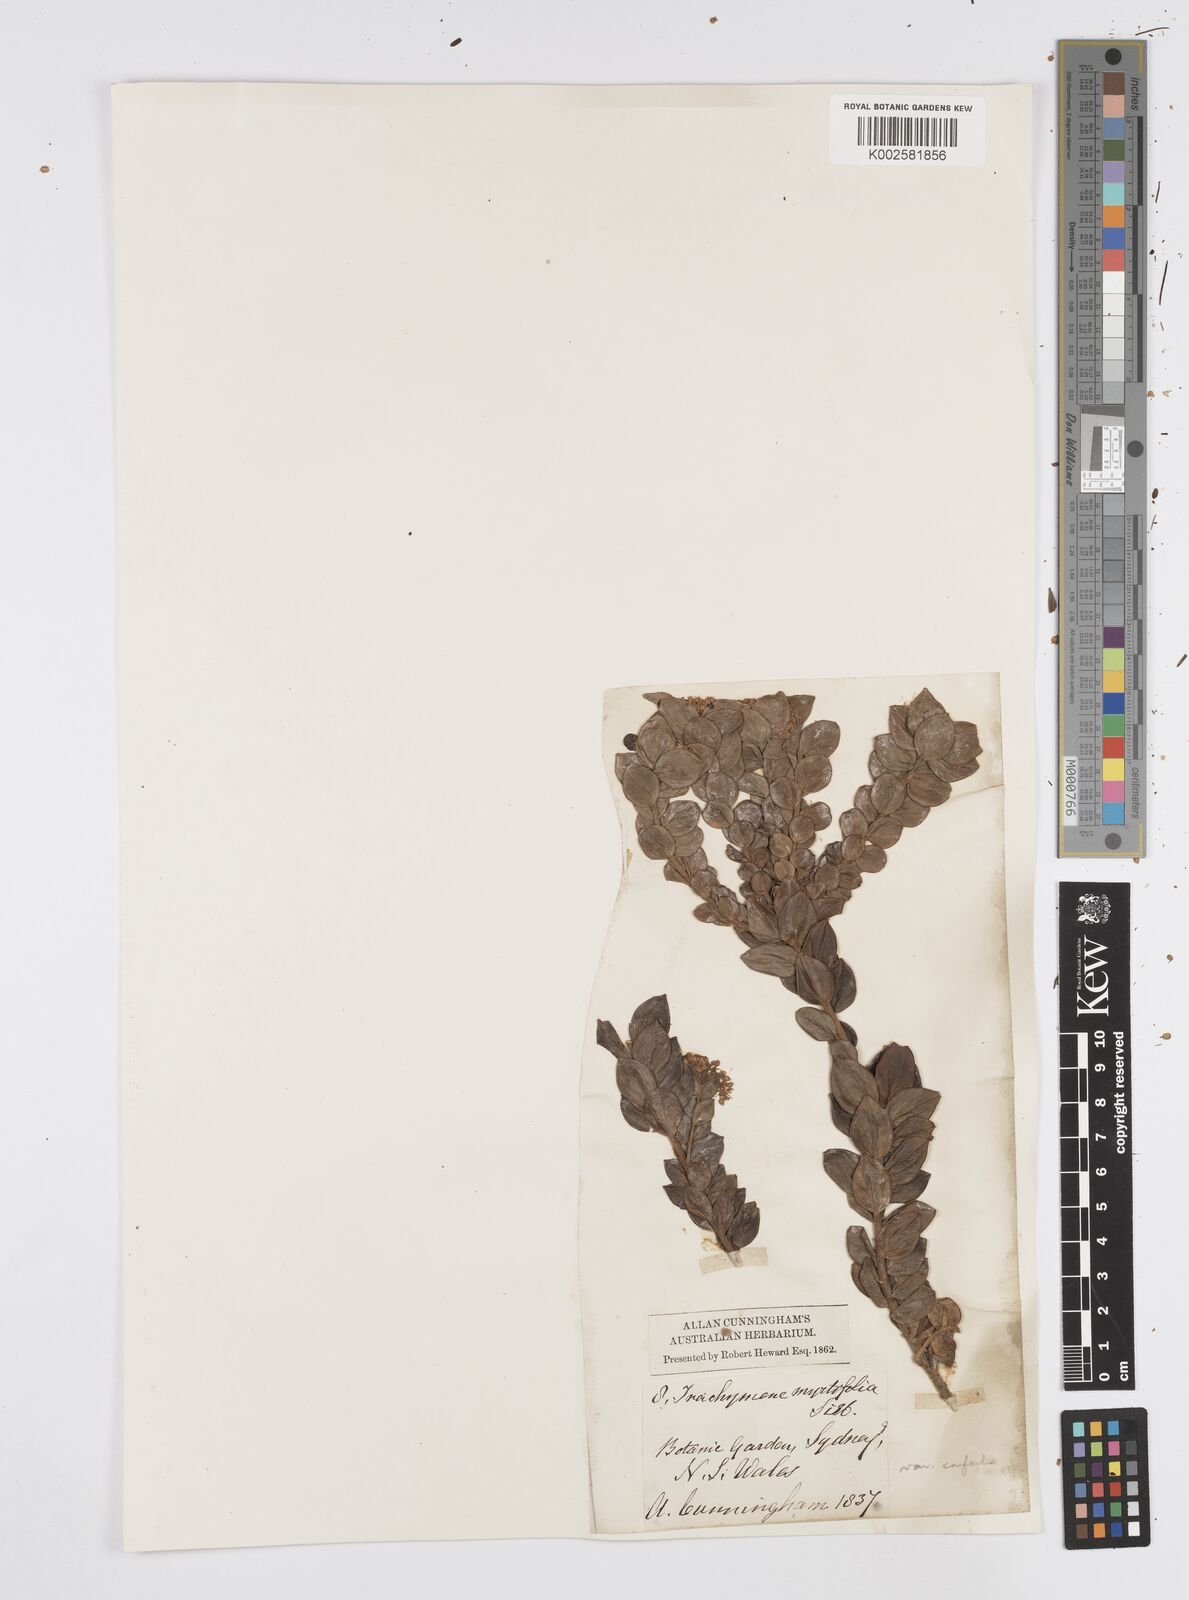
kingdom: Plantae
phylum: Tracheophyta
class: Magnoliopsida
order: Apiales
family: Apiaceae
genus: Platysace
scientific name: Platysace lanceolata
